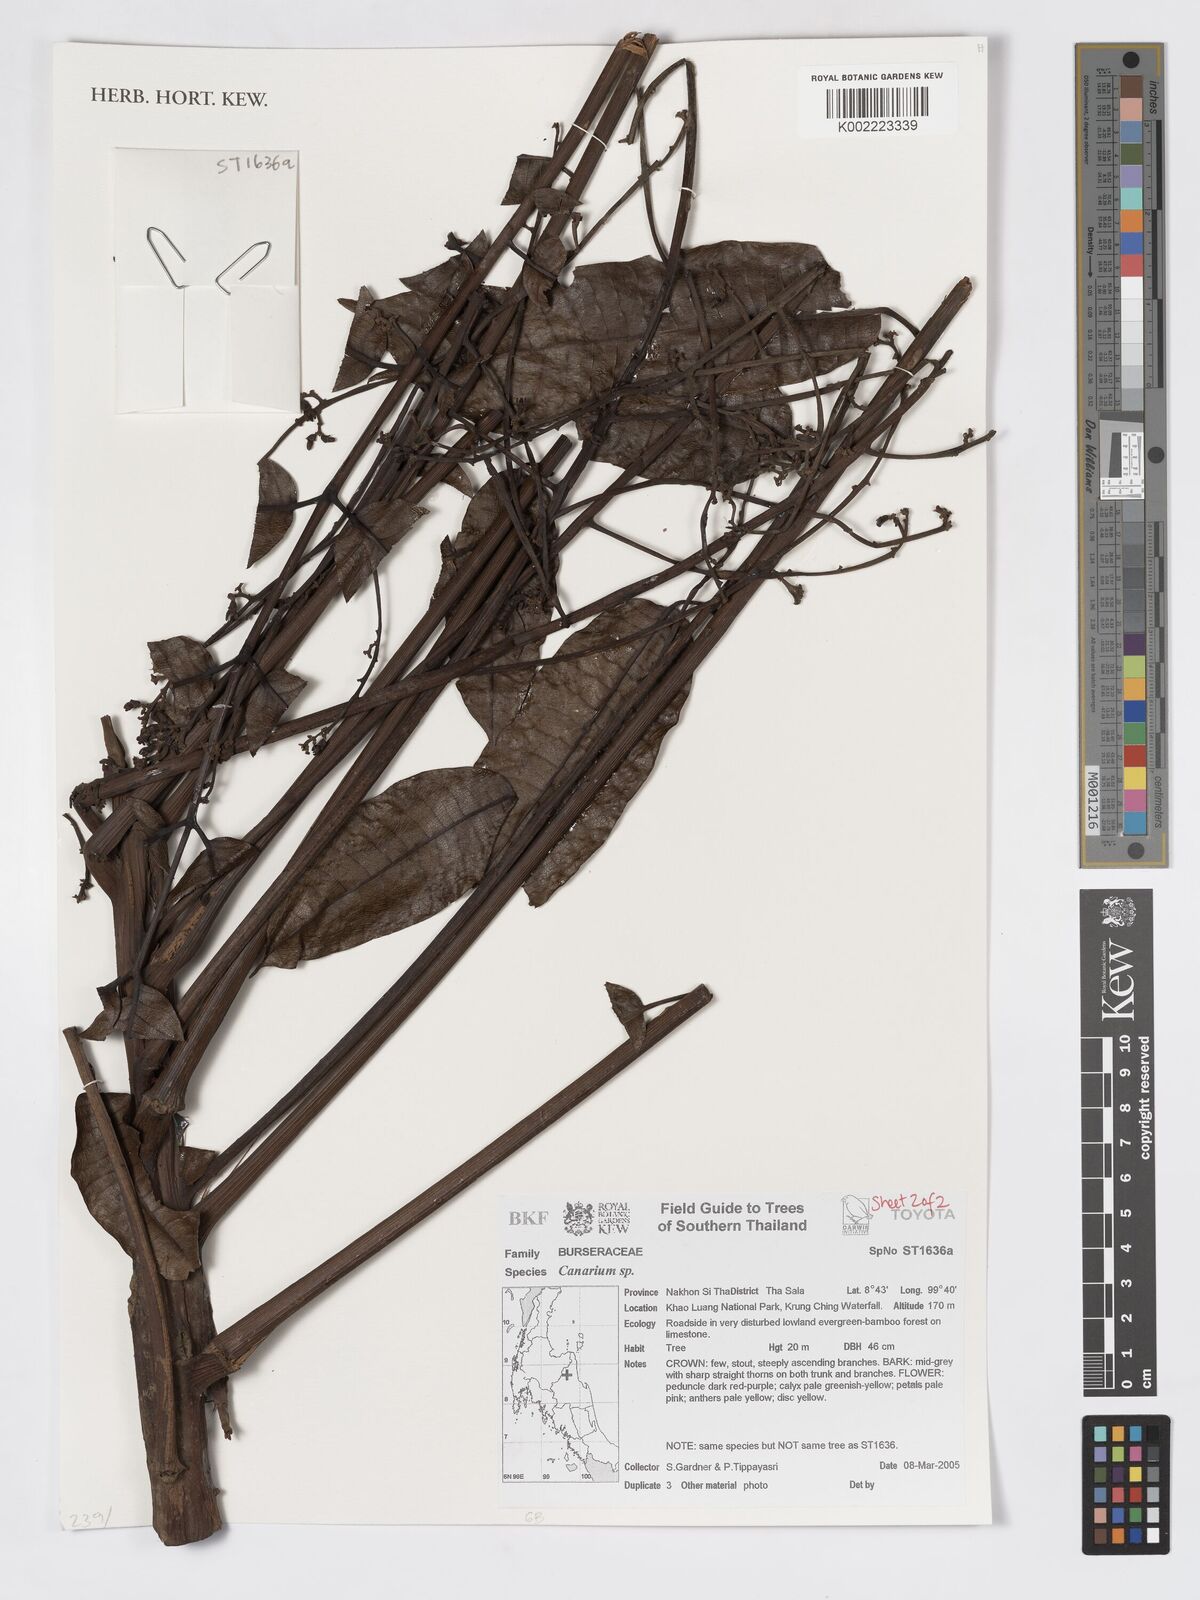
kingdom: Plantae
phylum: Tracheophyta
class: Magnoliopsida
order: Sapindales
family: Burseraceae
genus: Canarium
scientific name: Canarium
